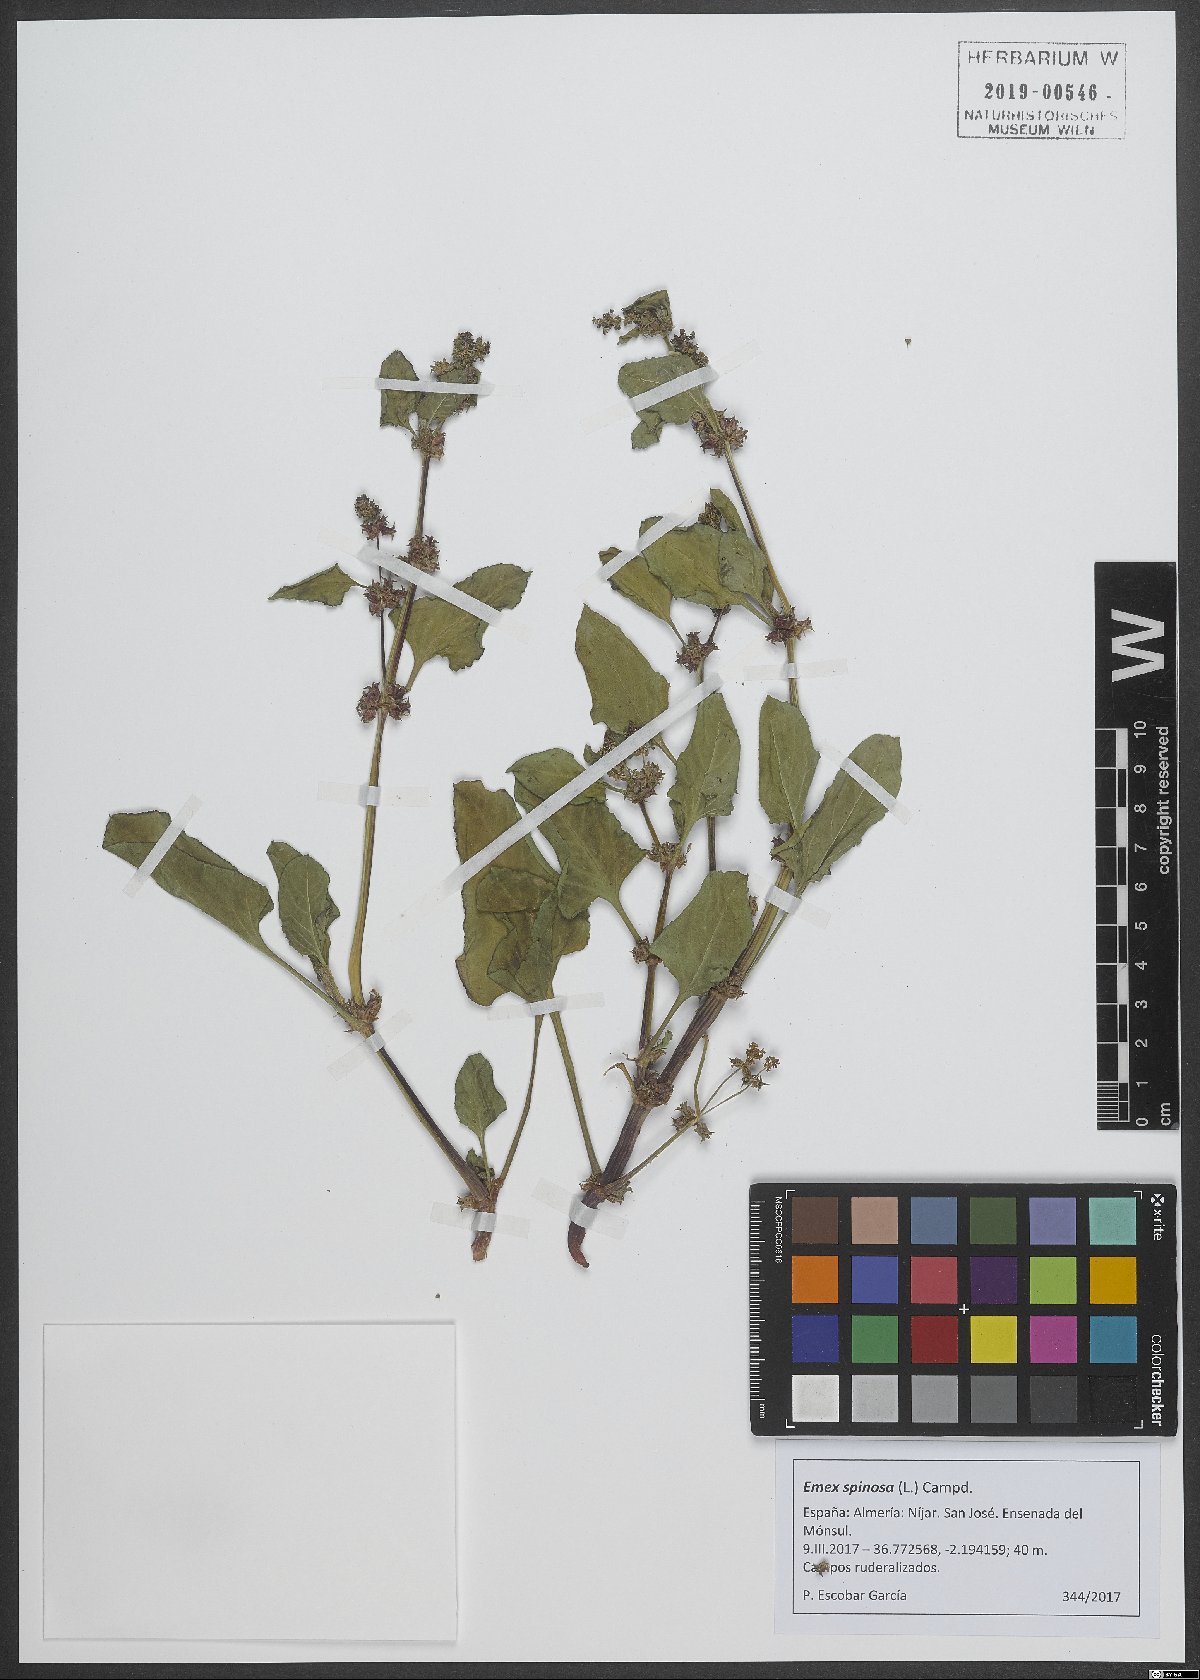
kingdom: Plantae
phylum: Tracheophyta
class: Magnoliopsida
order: Caryophyllales
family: Polygonaceae
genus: Rumex
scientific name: Rumex spinosus
